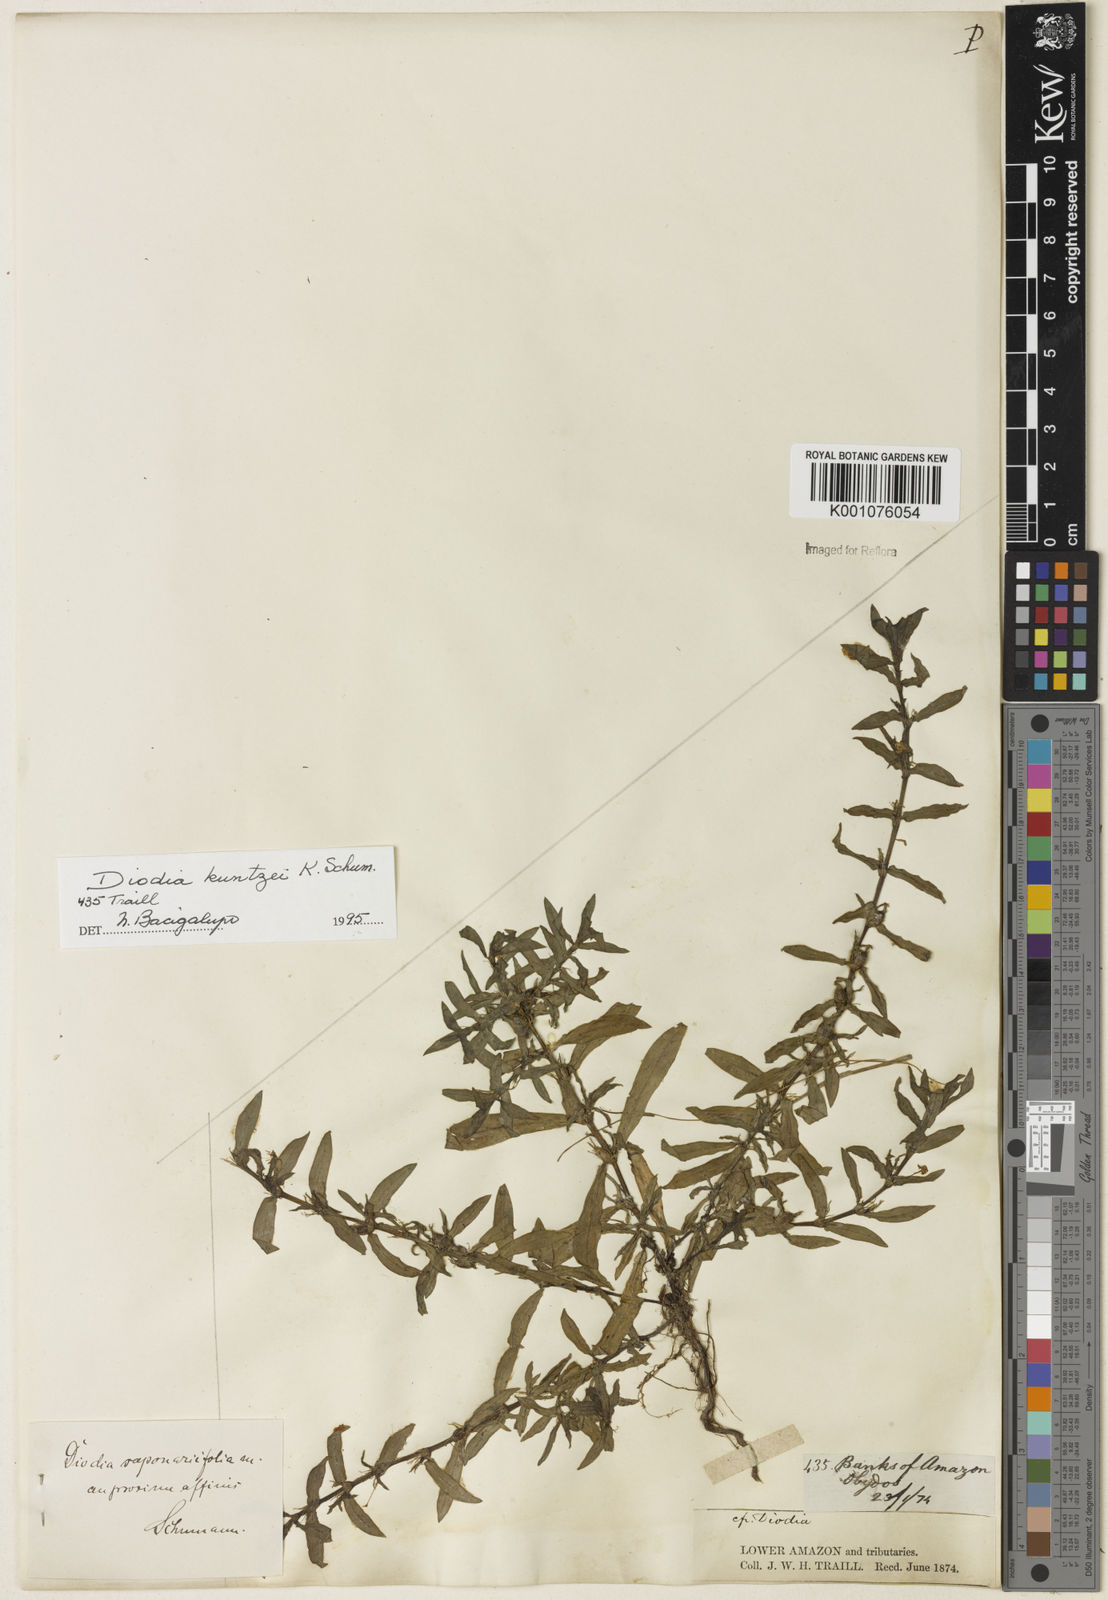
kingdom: Plantae
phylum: Tracheophyta
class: Magnoliopsida
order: Gentianales
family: Rubiaceae
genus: Diodia
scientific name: Diodia kuntzei
